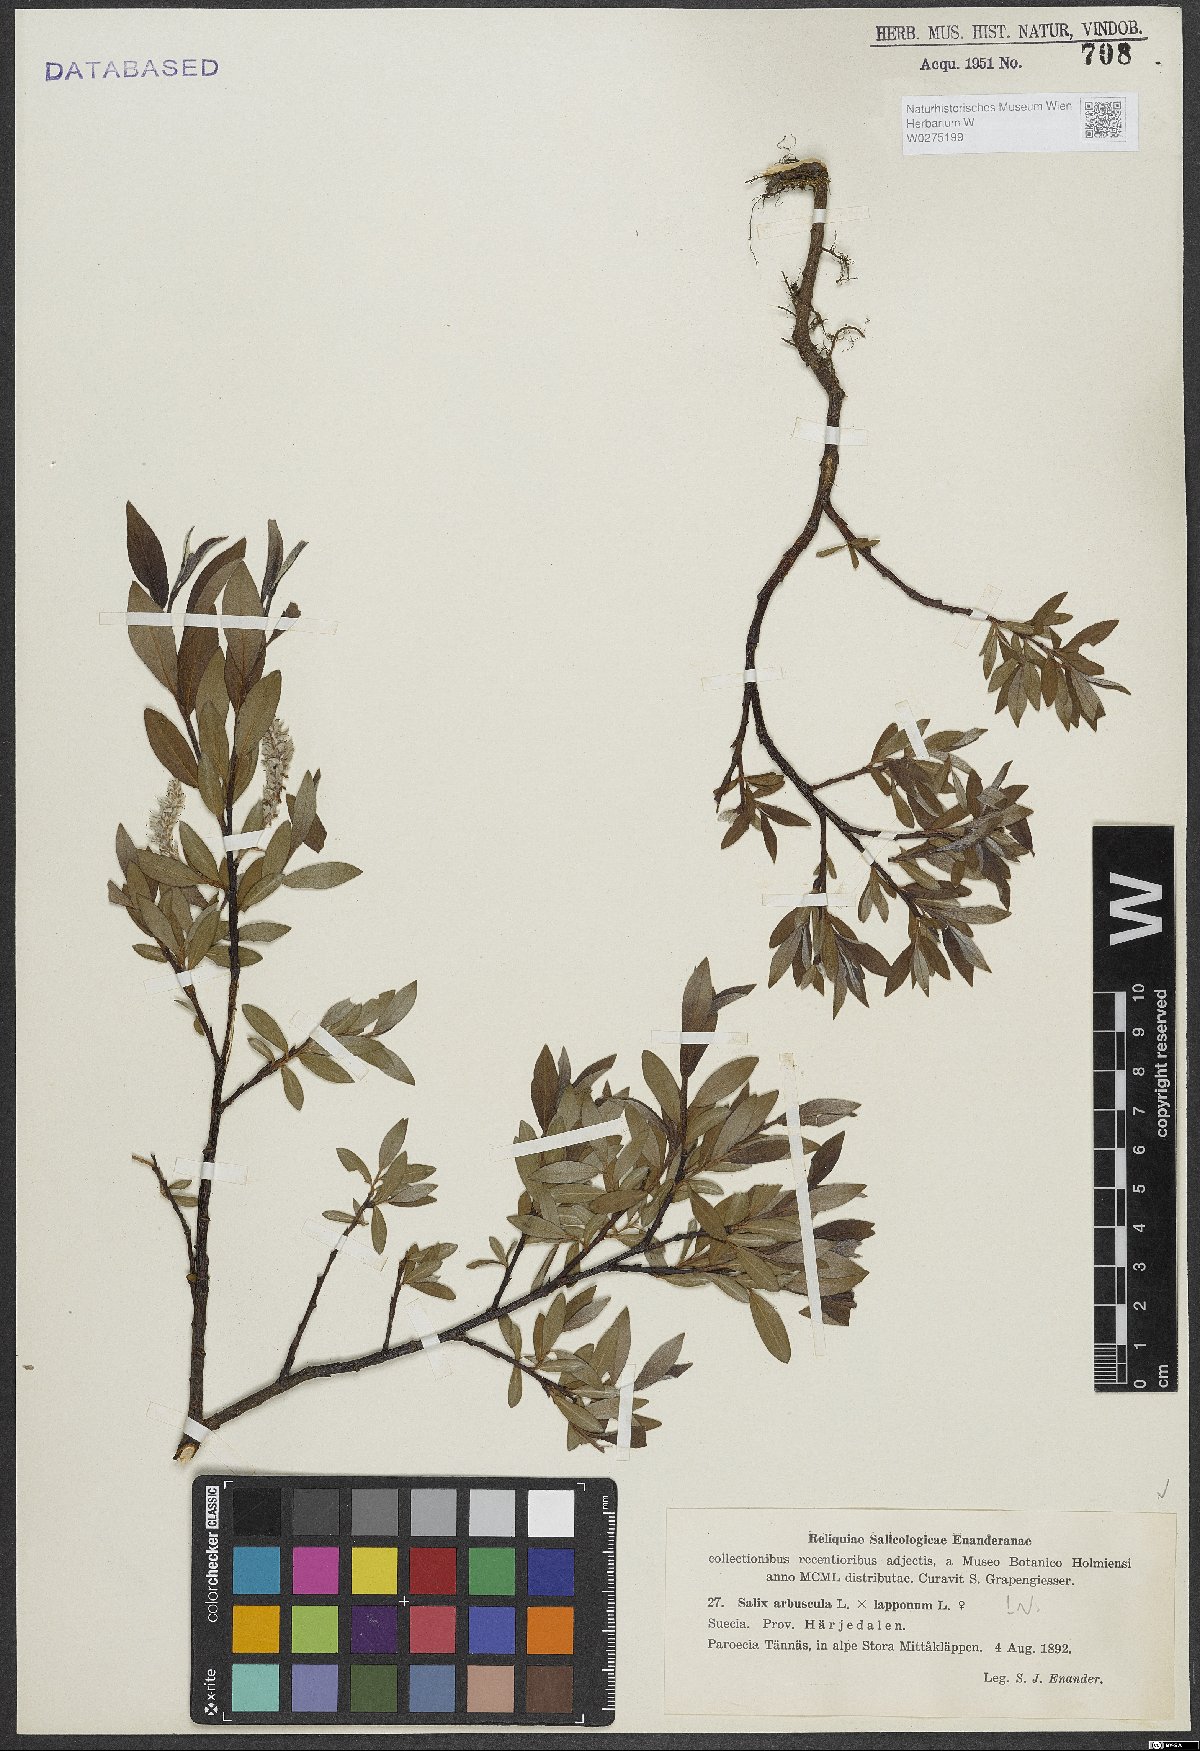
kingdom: Plantae
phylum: Tracheophyta
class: Magnoliopsida
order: Malpighiales
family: Salicaceae
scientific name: Salicaceae
